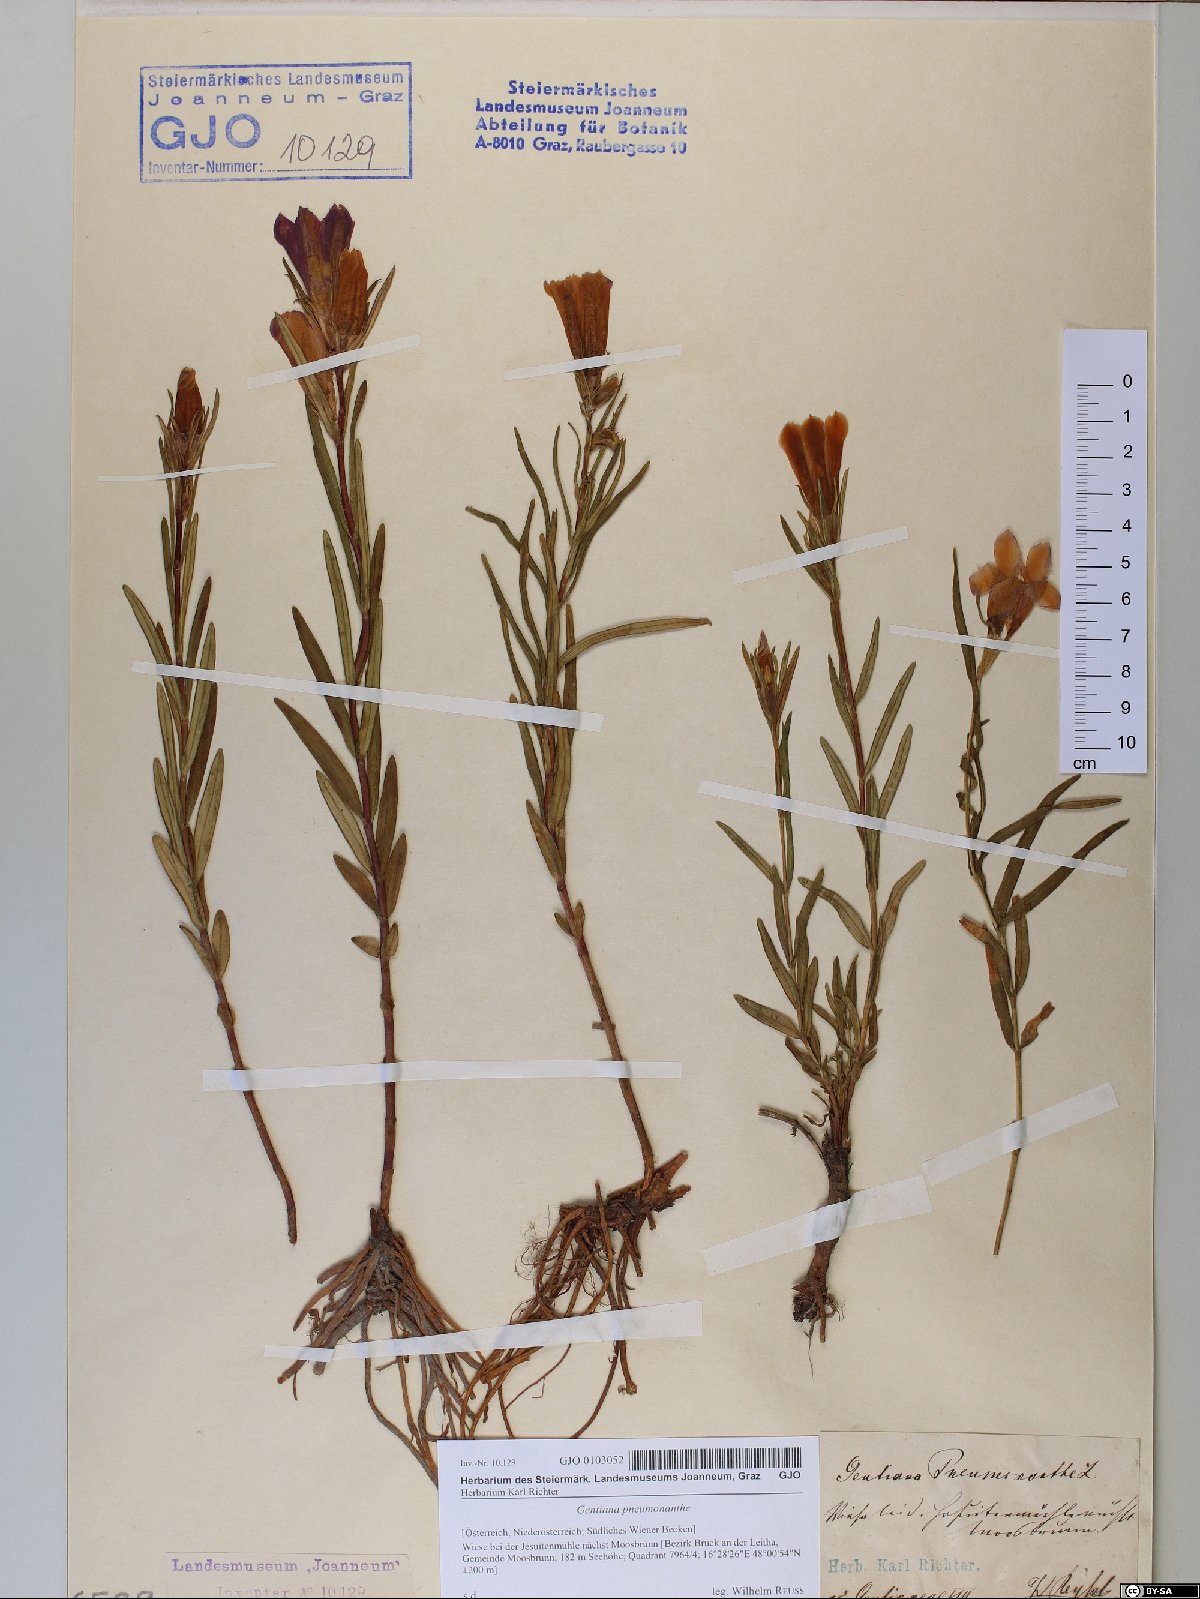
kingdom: Plantae
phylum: Tracheophyta
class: Magnoliopsida
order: Gentianales
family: Gentianaceae
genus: Gentiana
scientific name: Gentiana pneumonanthe
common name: Marsh gentian
